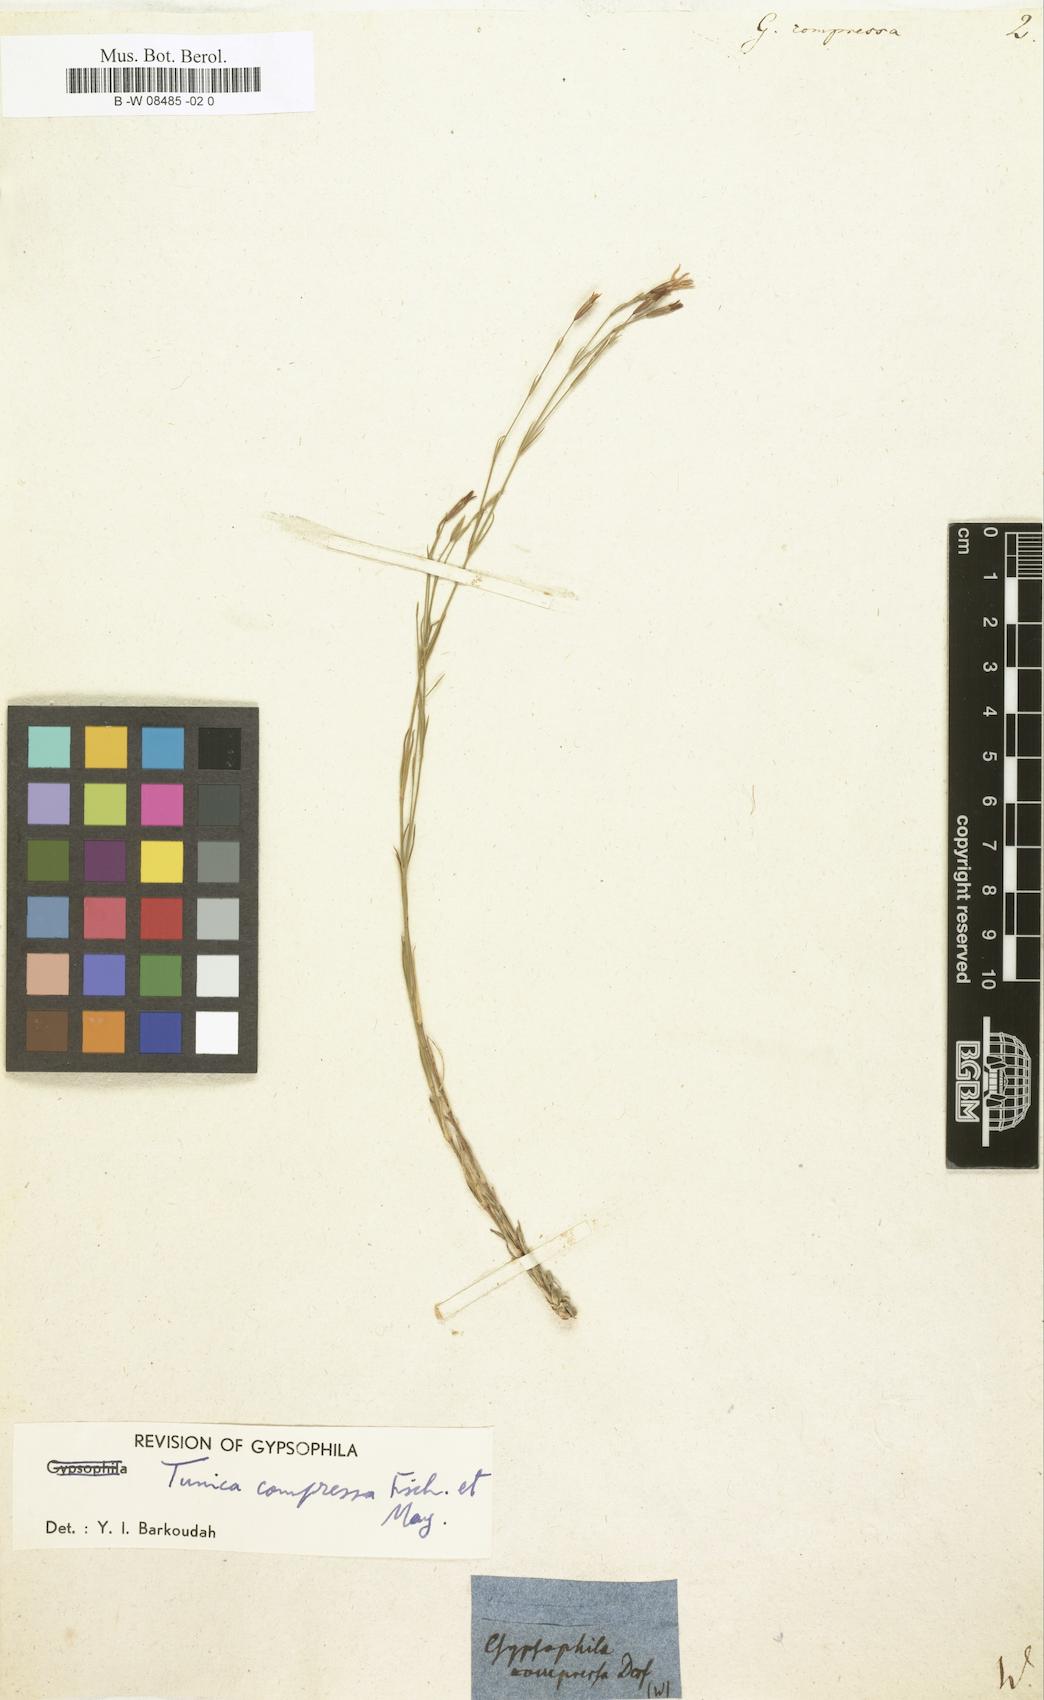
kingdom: Plantae
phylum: Tracheophyta
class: Magnoliopsida
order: Caryophyllales
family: Caryophyllaceae
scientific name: Caryophyllaceae
